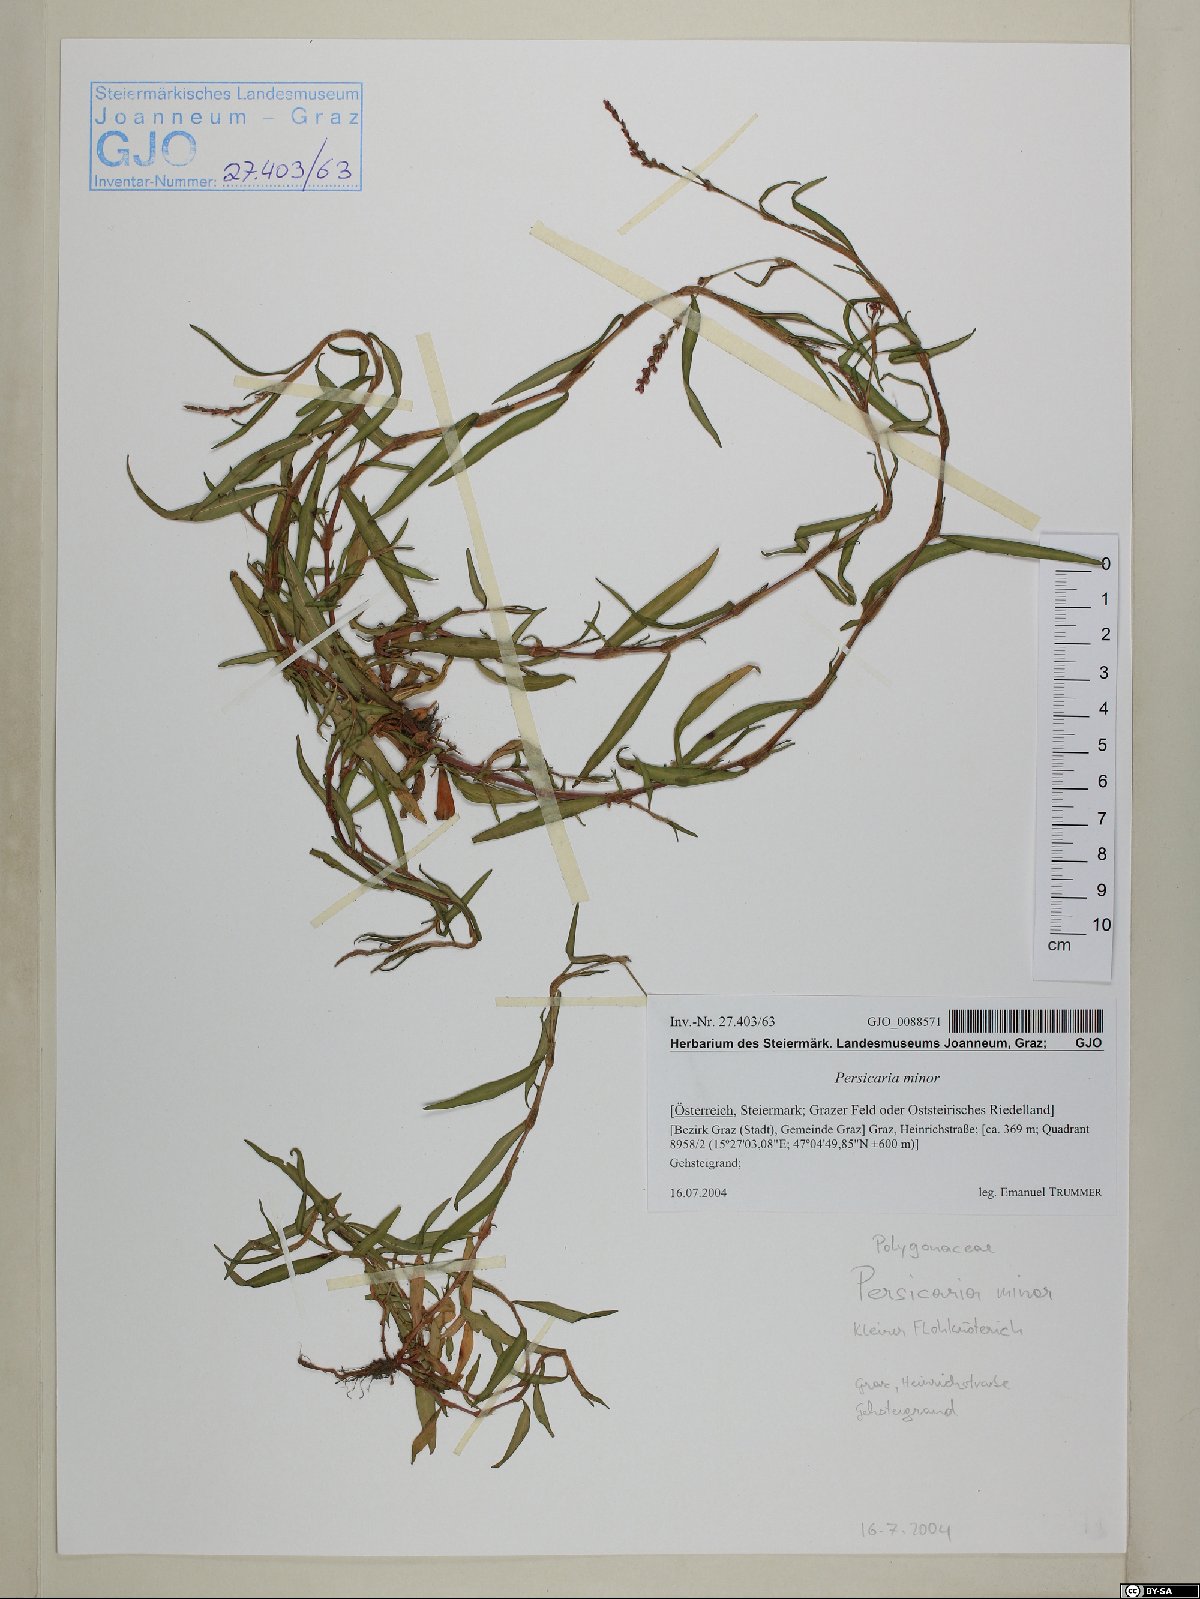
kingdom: Plantae
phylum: Tracheophyta
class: Magnoliopsida
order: Caryophyllales
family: Polygonaceae
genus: Persicaria
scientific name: Persicaria minor
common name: Small water-pepper
